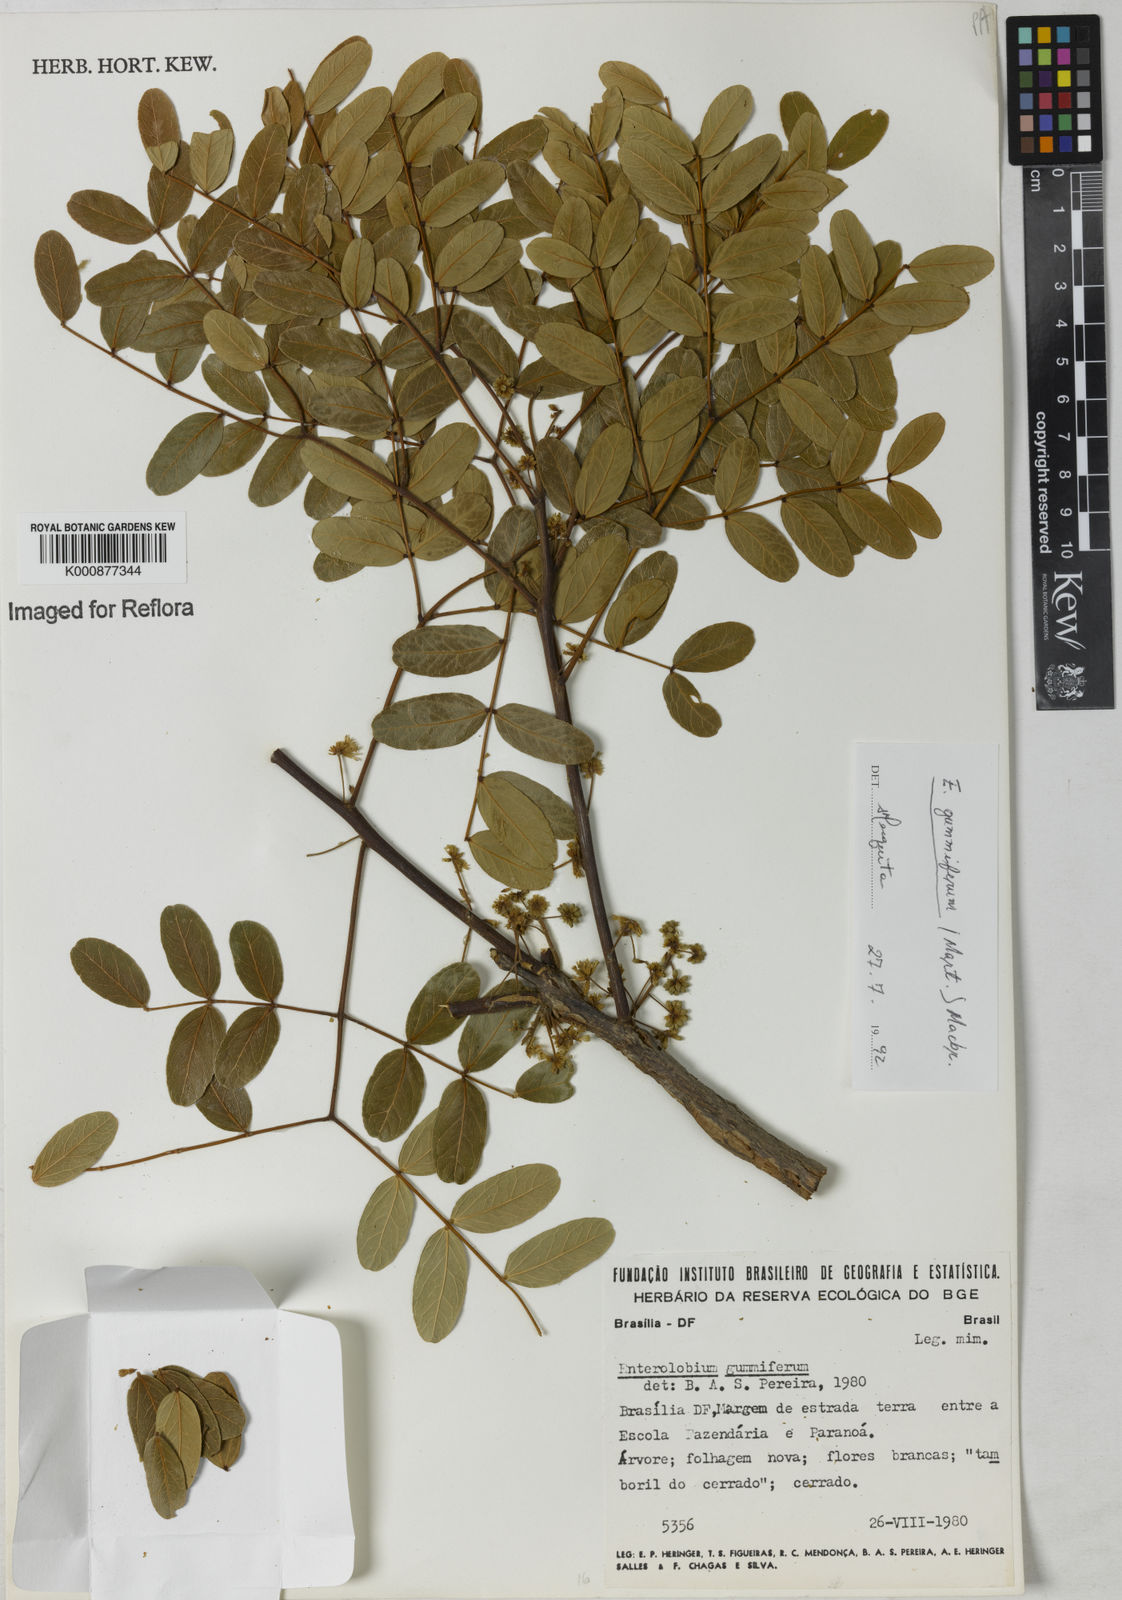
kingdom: Plantae
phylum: Tracheophyta
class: Magnoliopsida
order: Fabales
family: Fabaceae
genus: Enterolobium
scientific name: Enterolobium gummiferum
